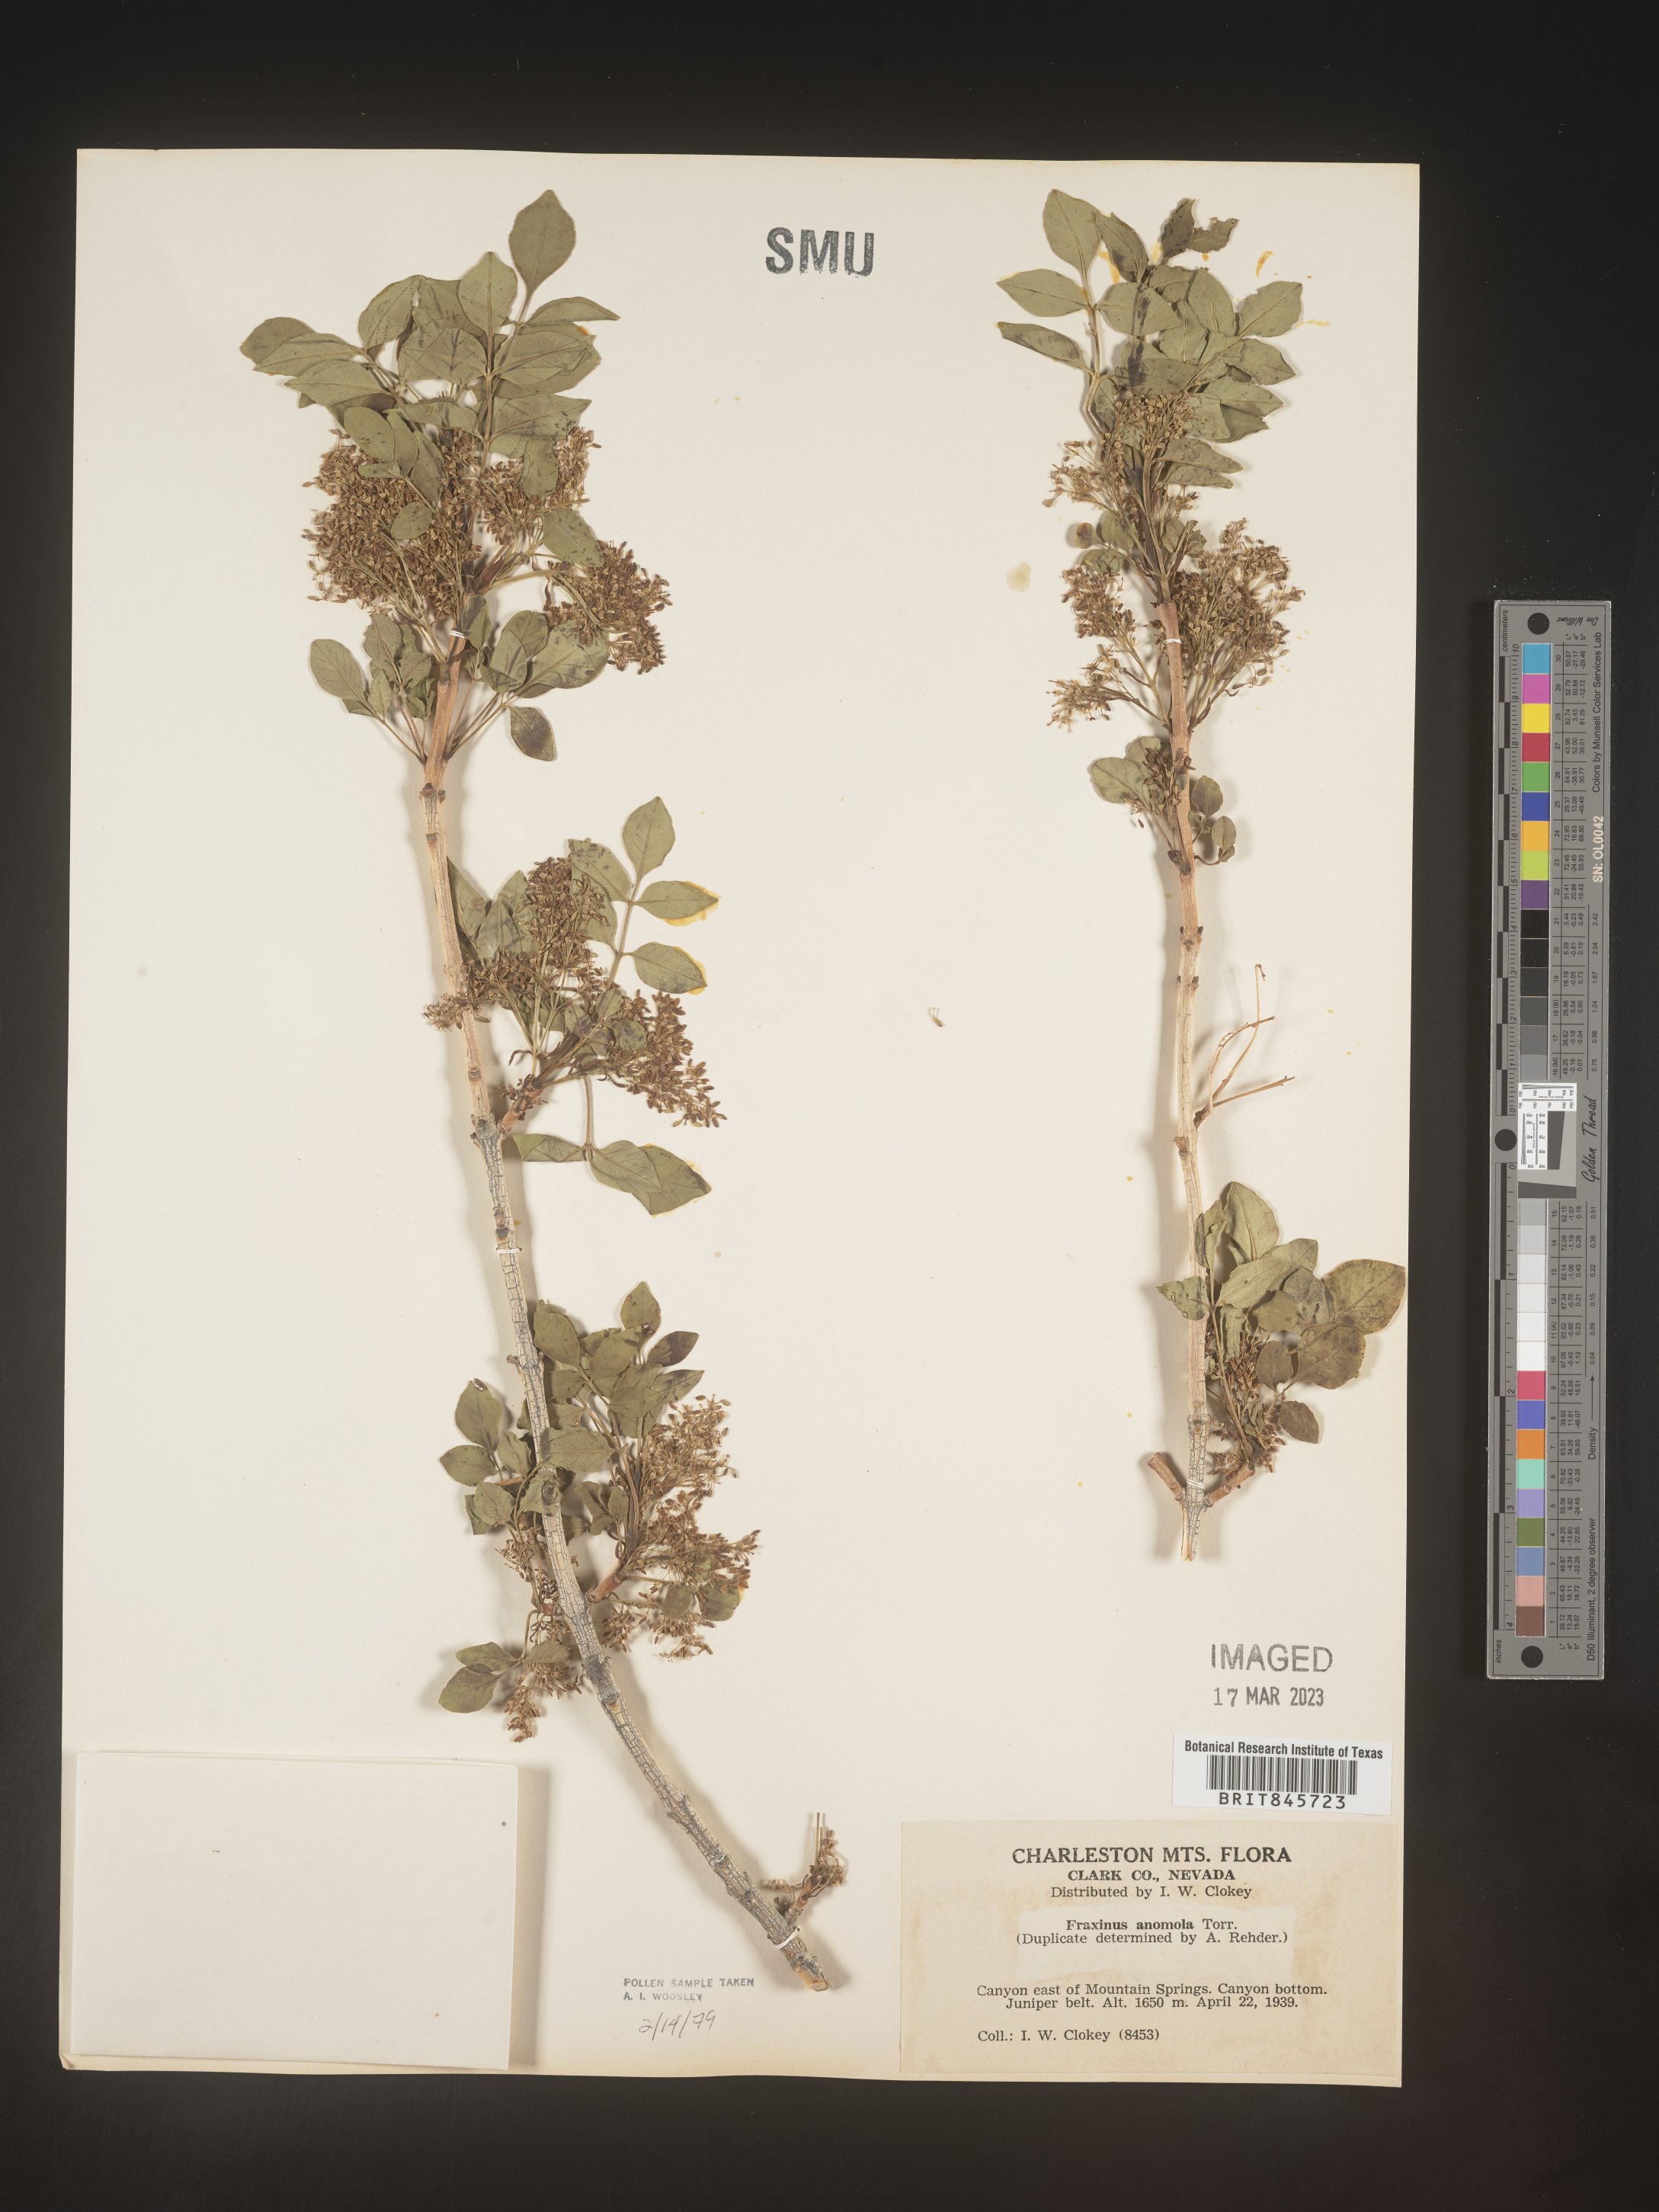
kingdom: Plantae
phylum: Tracheophyta
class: Magnoliopsida
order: Lamiales
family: Oleaceae
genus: Fraxinus
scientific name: Fraxinus anomala
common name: Utah ash
